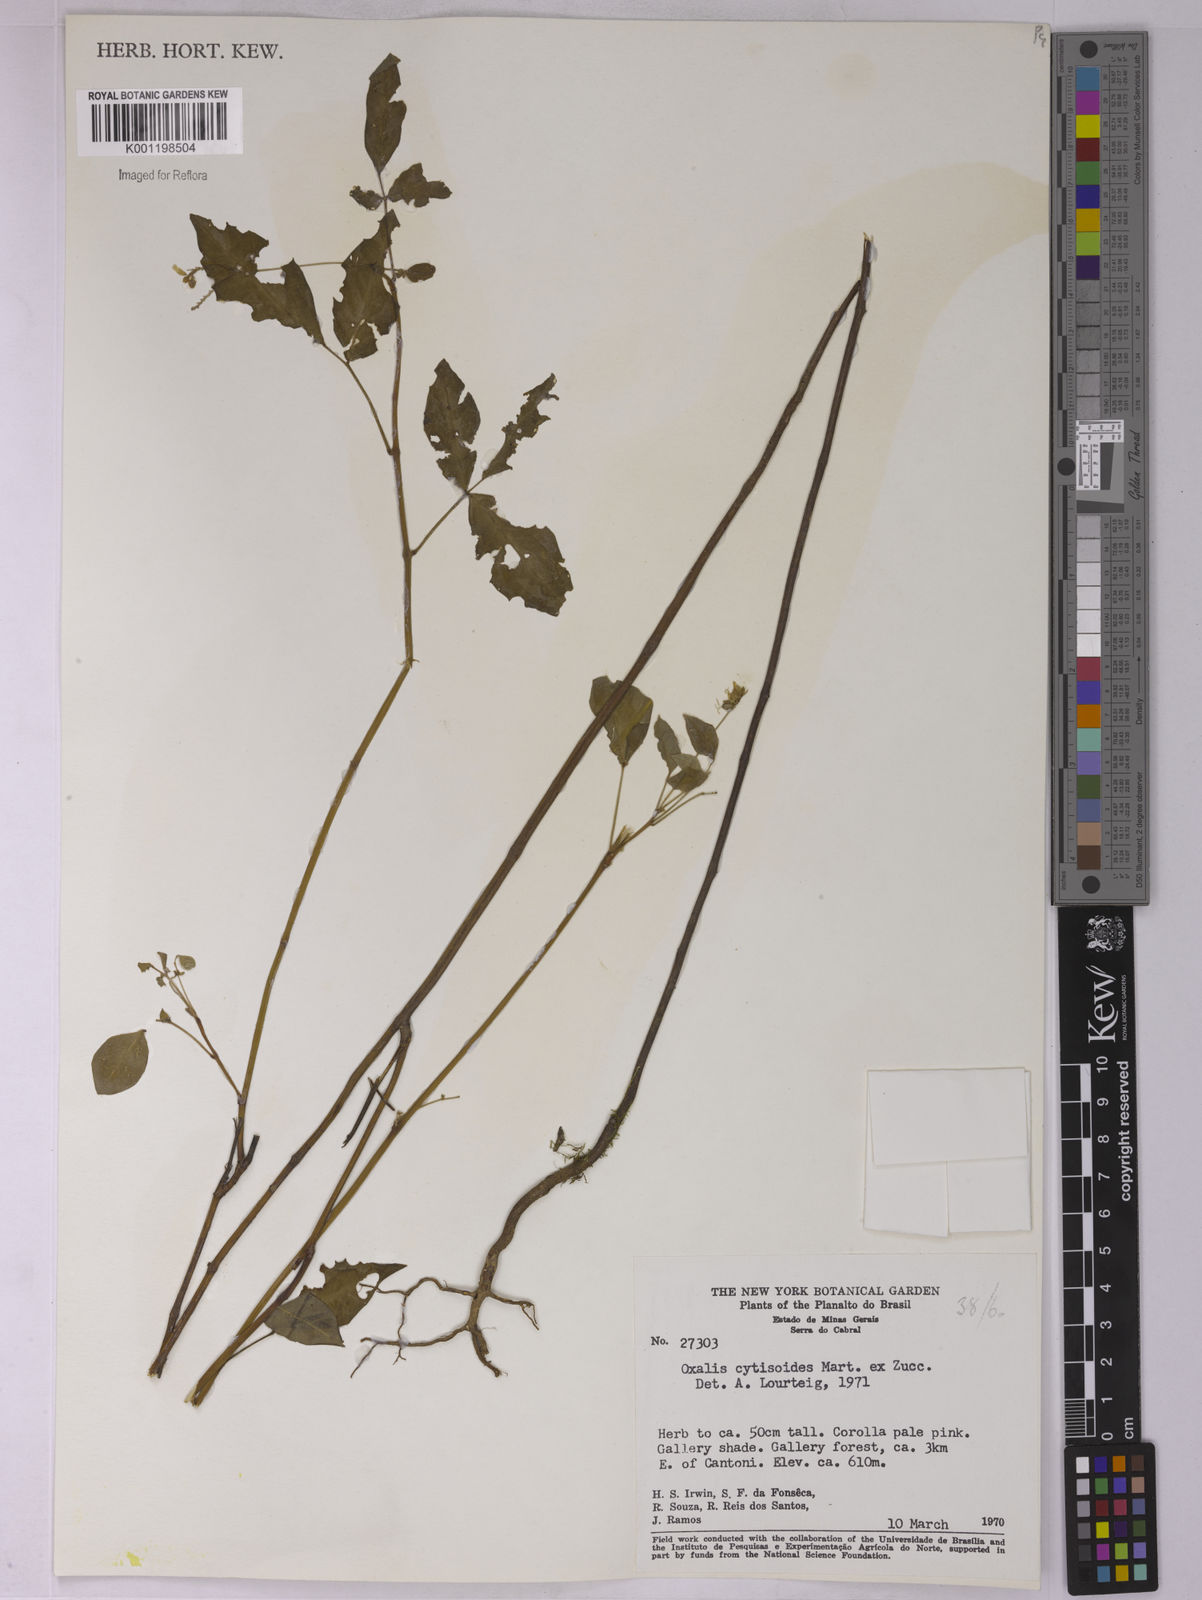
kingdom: Plantae
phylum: Tracheophyta
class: Magnoliopsida
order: Oxalidales
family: Oxalidaceae
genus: Oxalis
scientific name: Oxalis cytisoides
